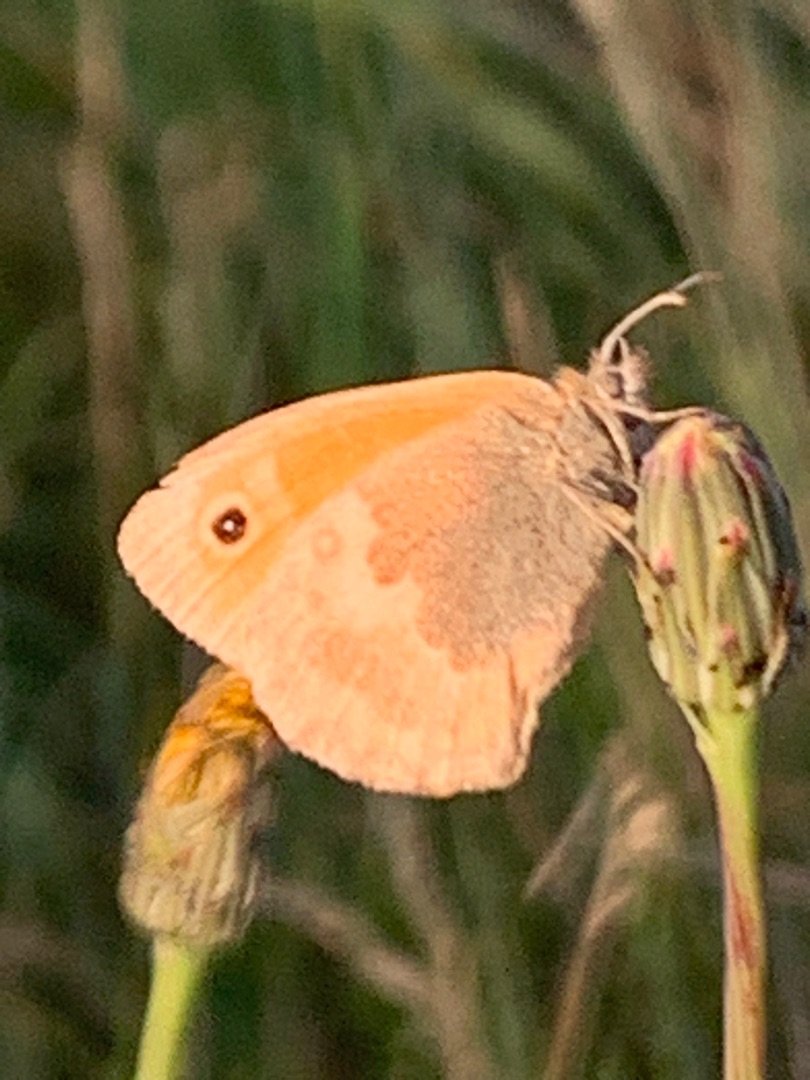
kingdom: Animalia
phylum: Arthropoda
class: Insecta
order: Lepidoptera
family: Nymphalidae
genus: Coenonympha
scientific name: Coenonympha pamphilus
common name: Okkergul randøje
